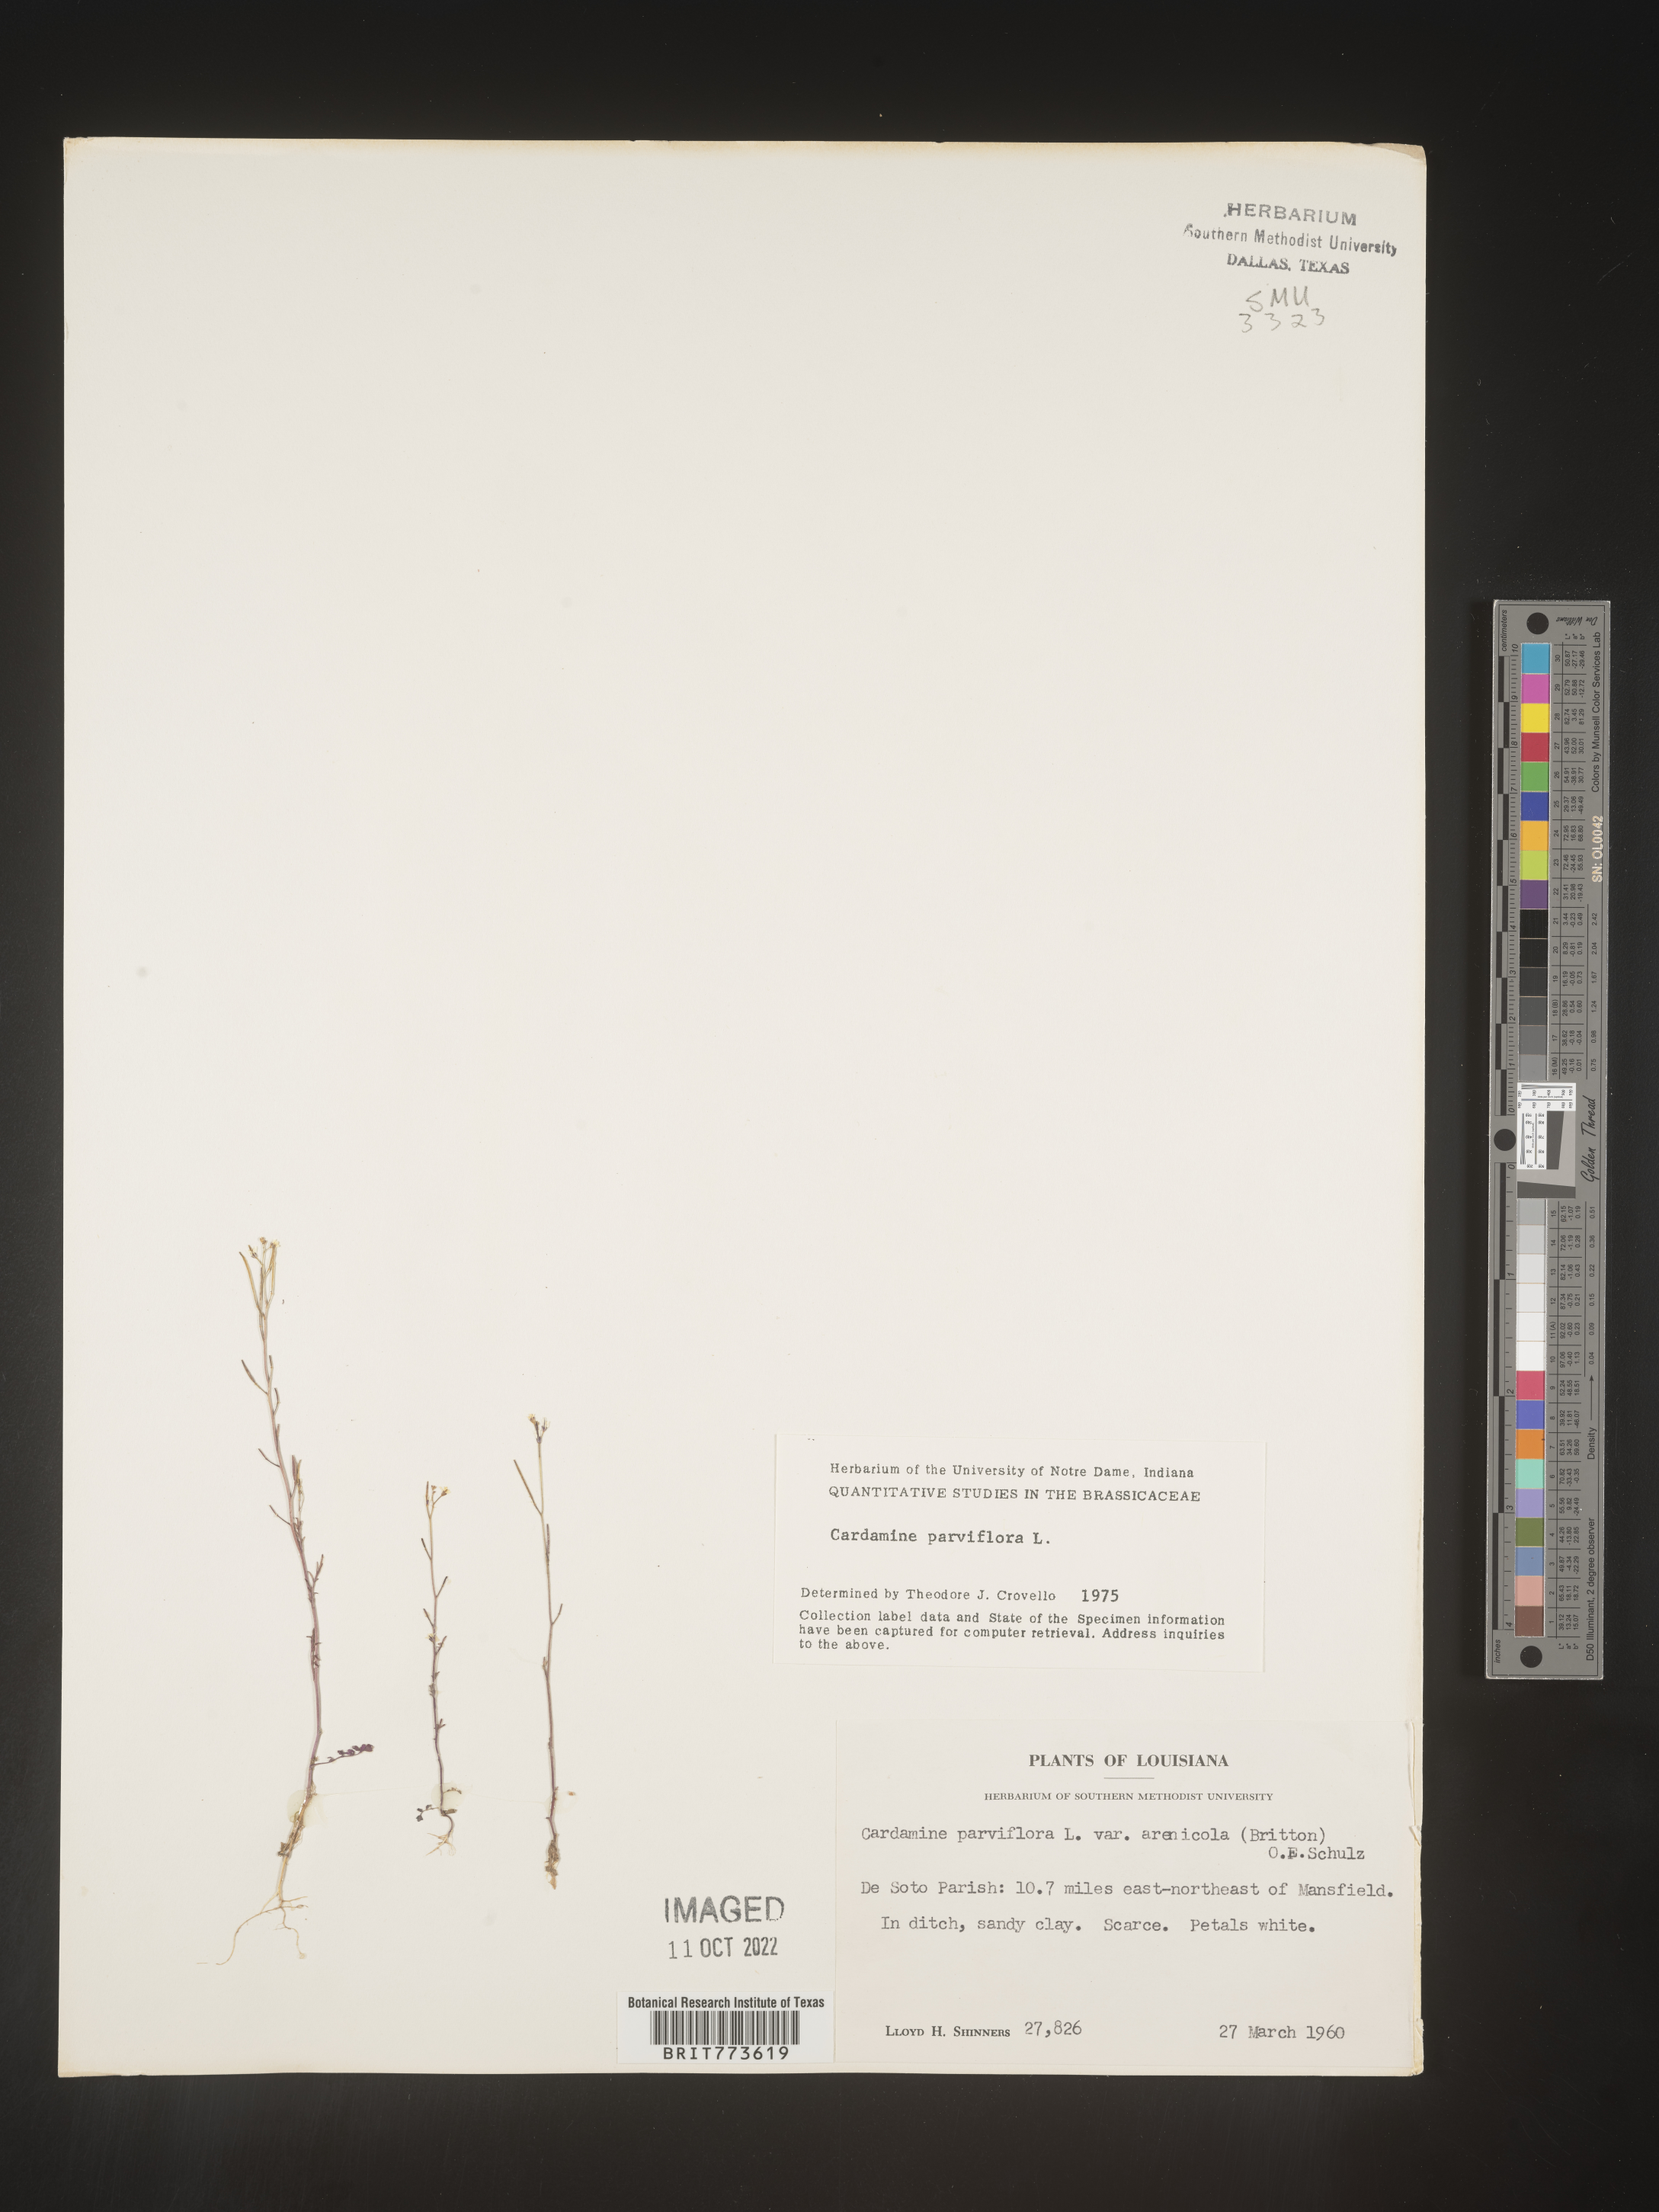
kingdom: Plantae
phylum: Tracheophyta
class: Magnoliopsida
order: Brassicales
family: Brassicaceae
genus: Cardamine
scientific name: Cardamine parviflora
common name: Sand bittercress
